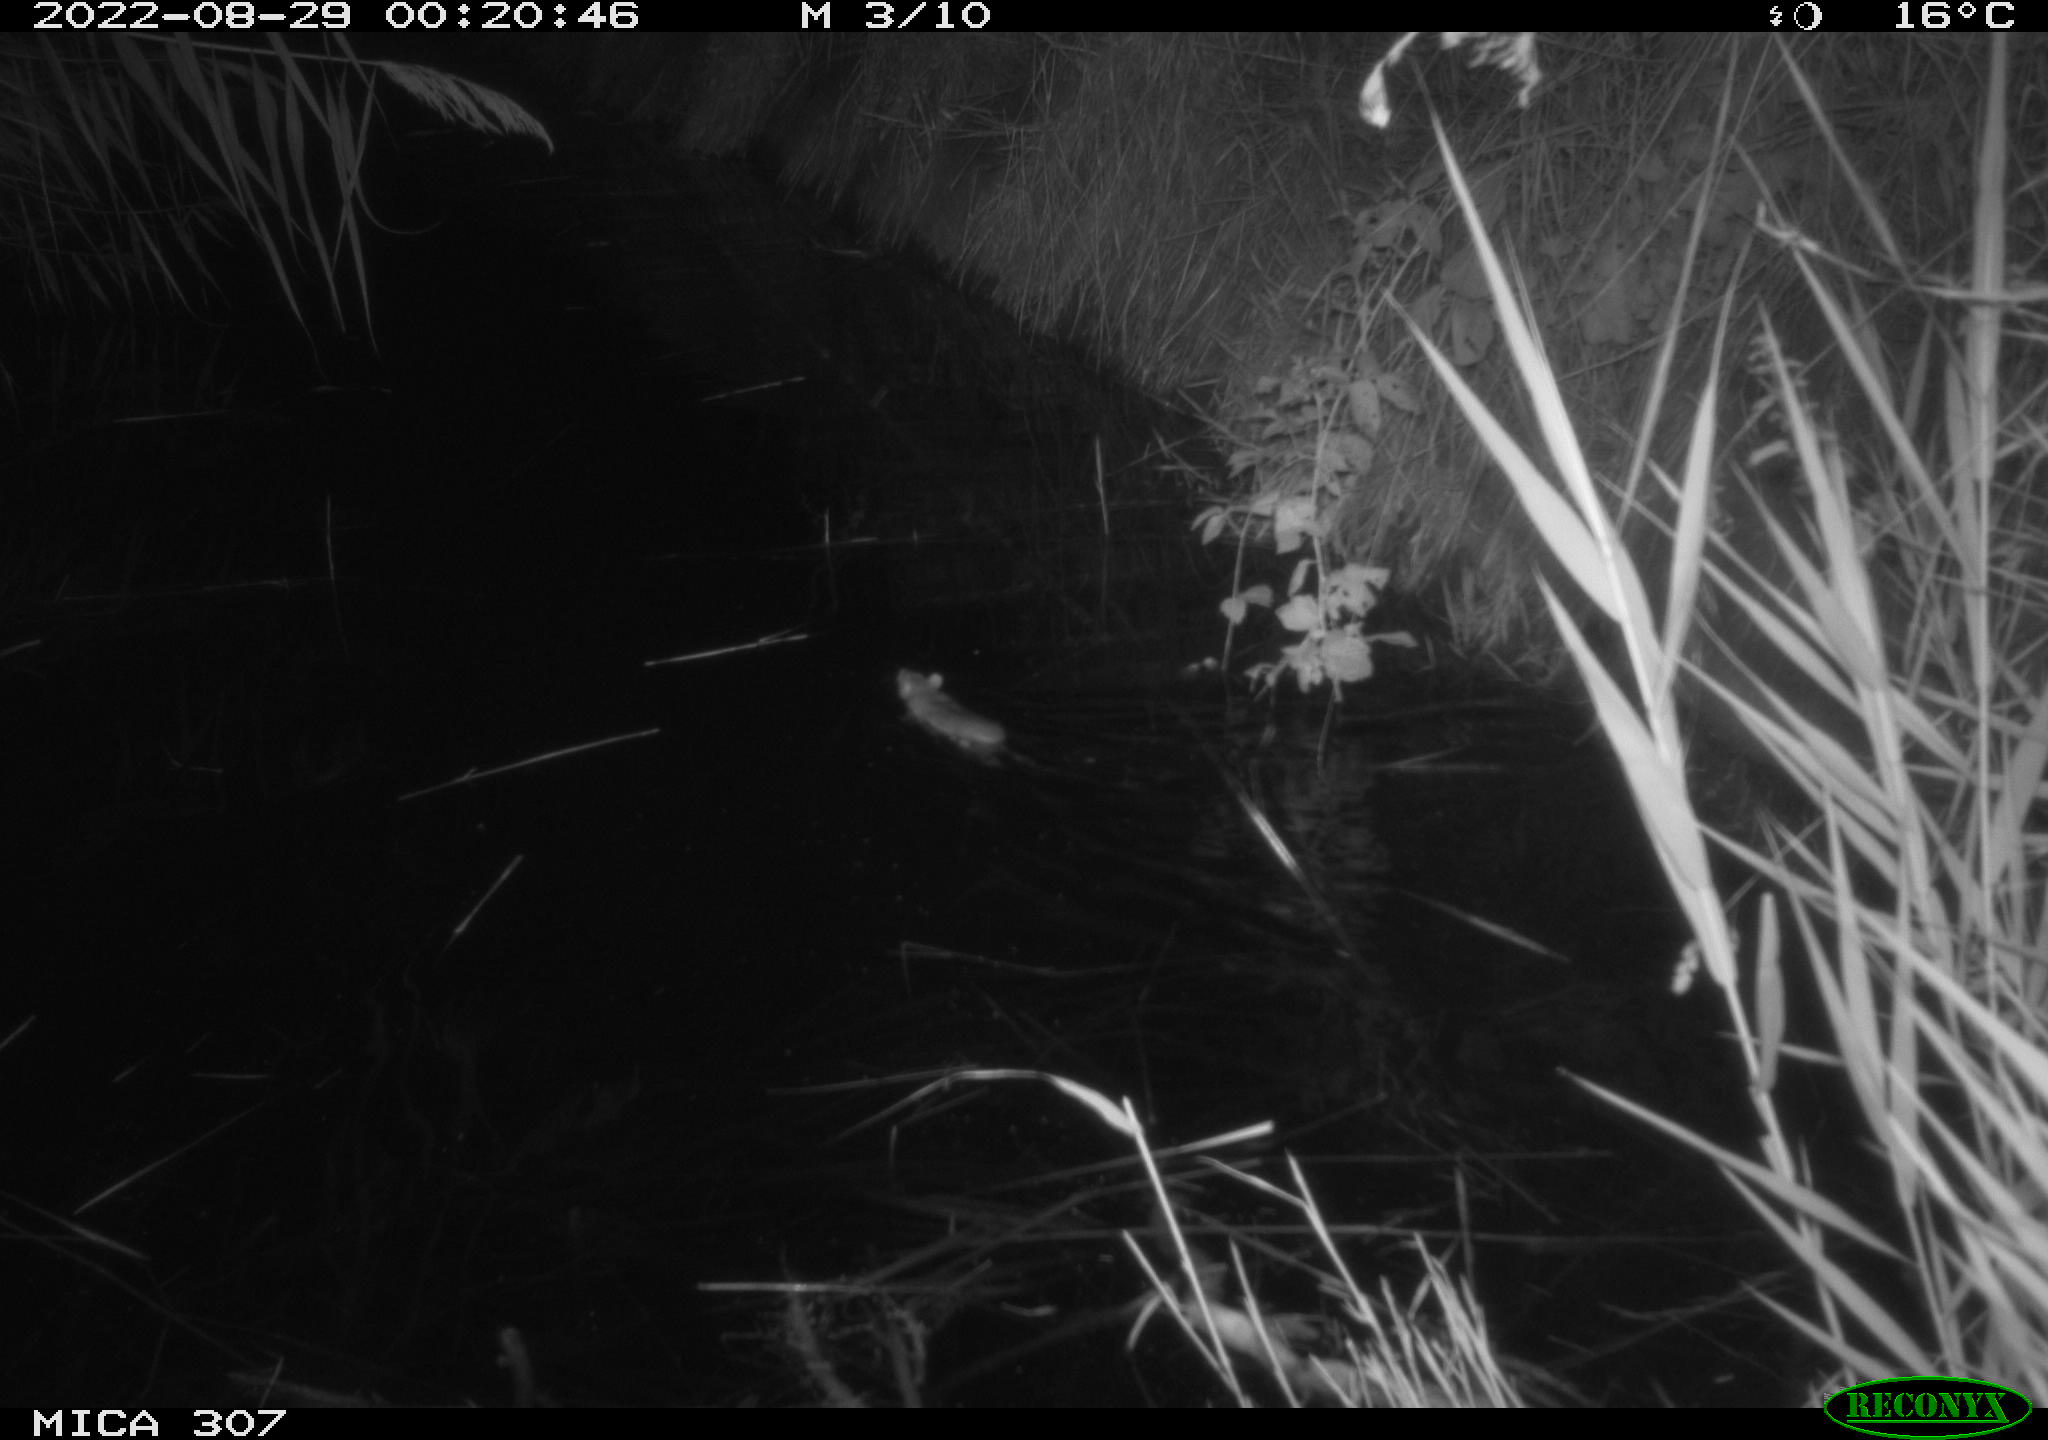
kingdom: Animalia
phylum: Chordata
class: Mammalia
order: Rodentia
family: Muridae
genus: Rattus
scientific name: Rattus norvegicus
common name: Brown rat
